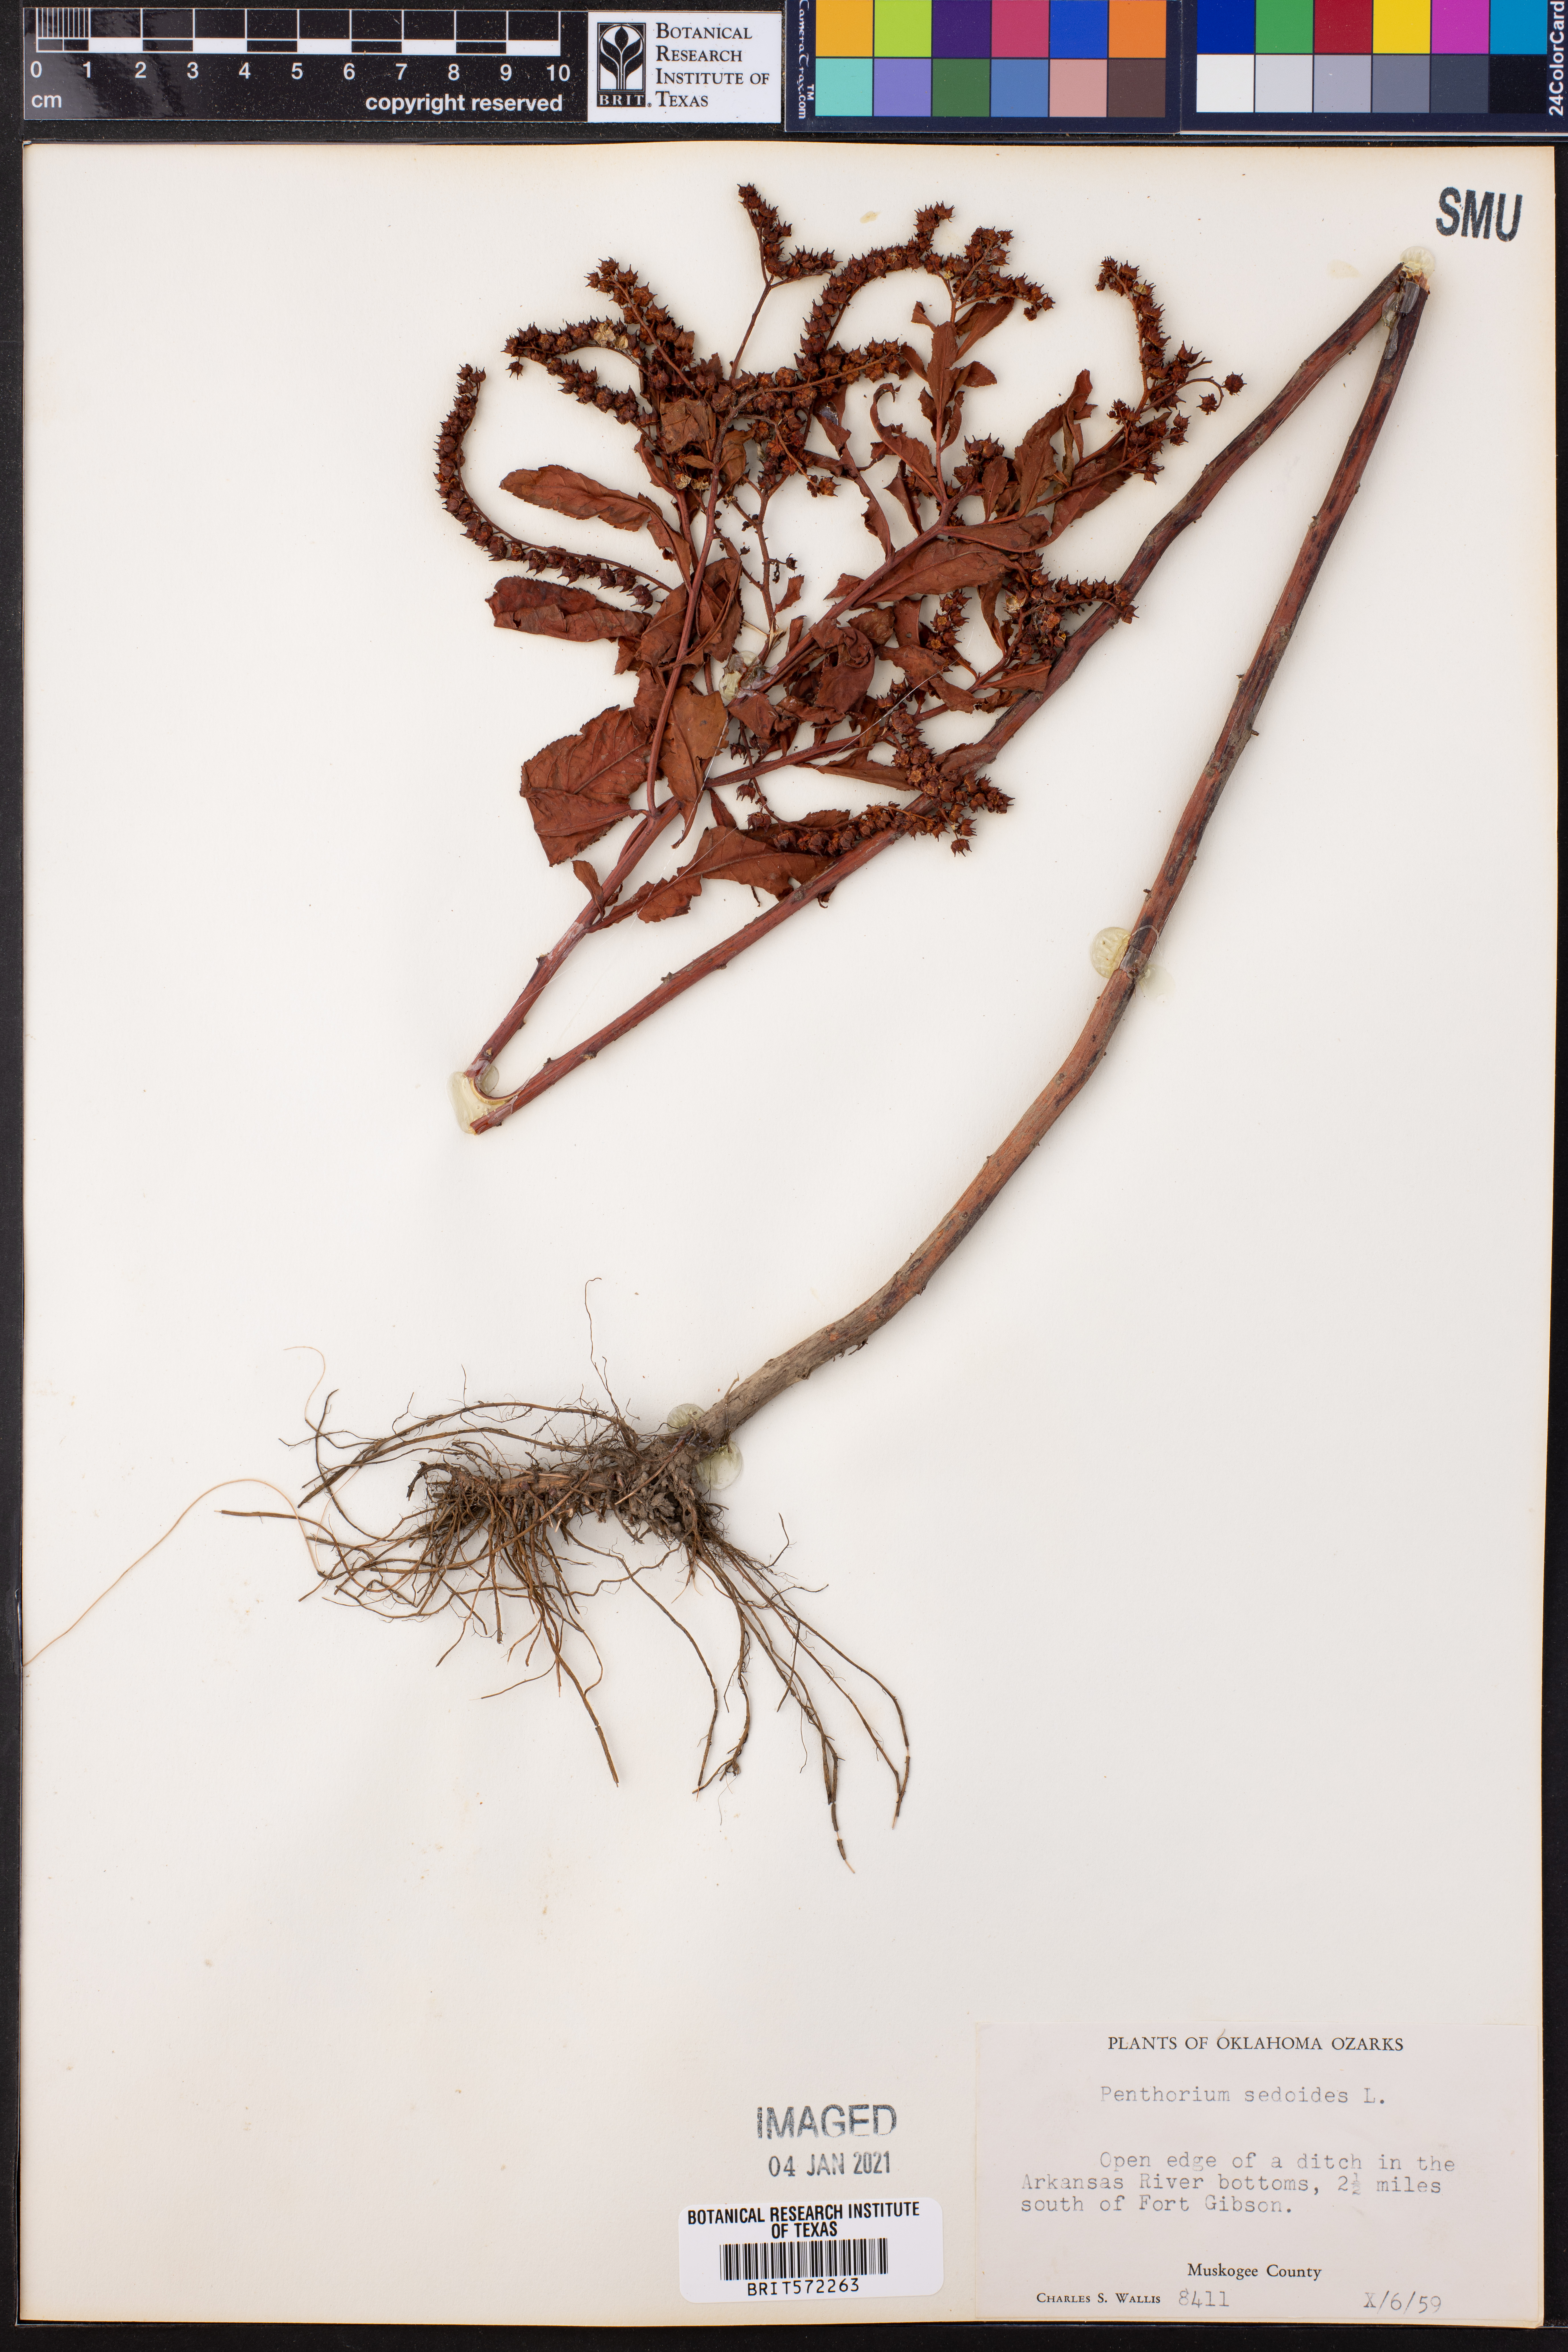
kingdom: Plantae
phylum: Tracheophyta
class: Magnoliopsida
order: Saxifragales
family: Penthoraceae
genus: Penthorum
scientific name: Penthorum sedoides
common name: Ditch stonecrop
